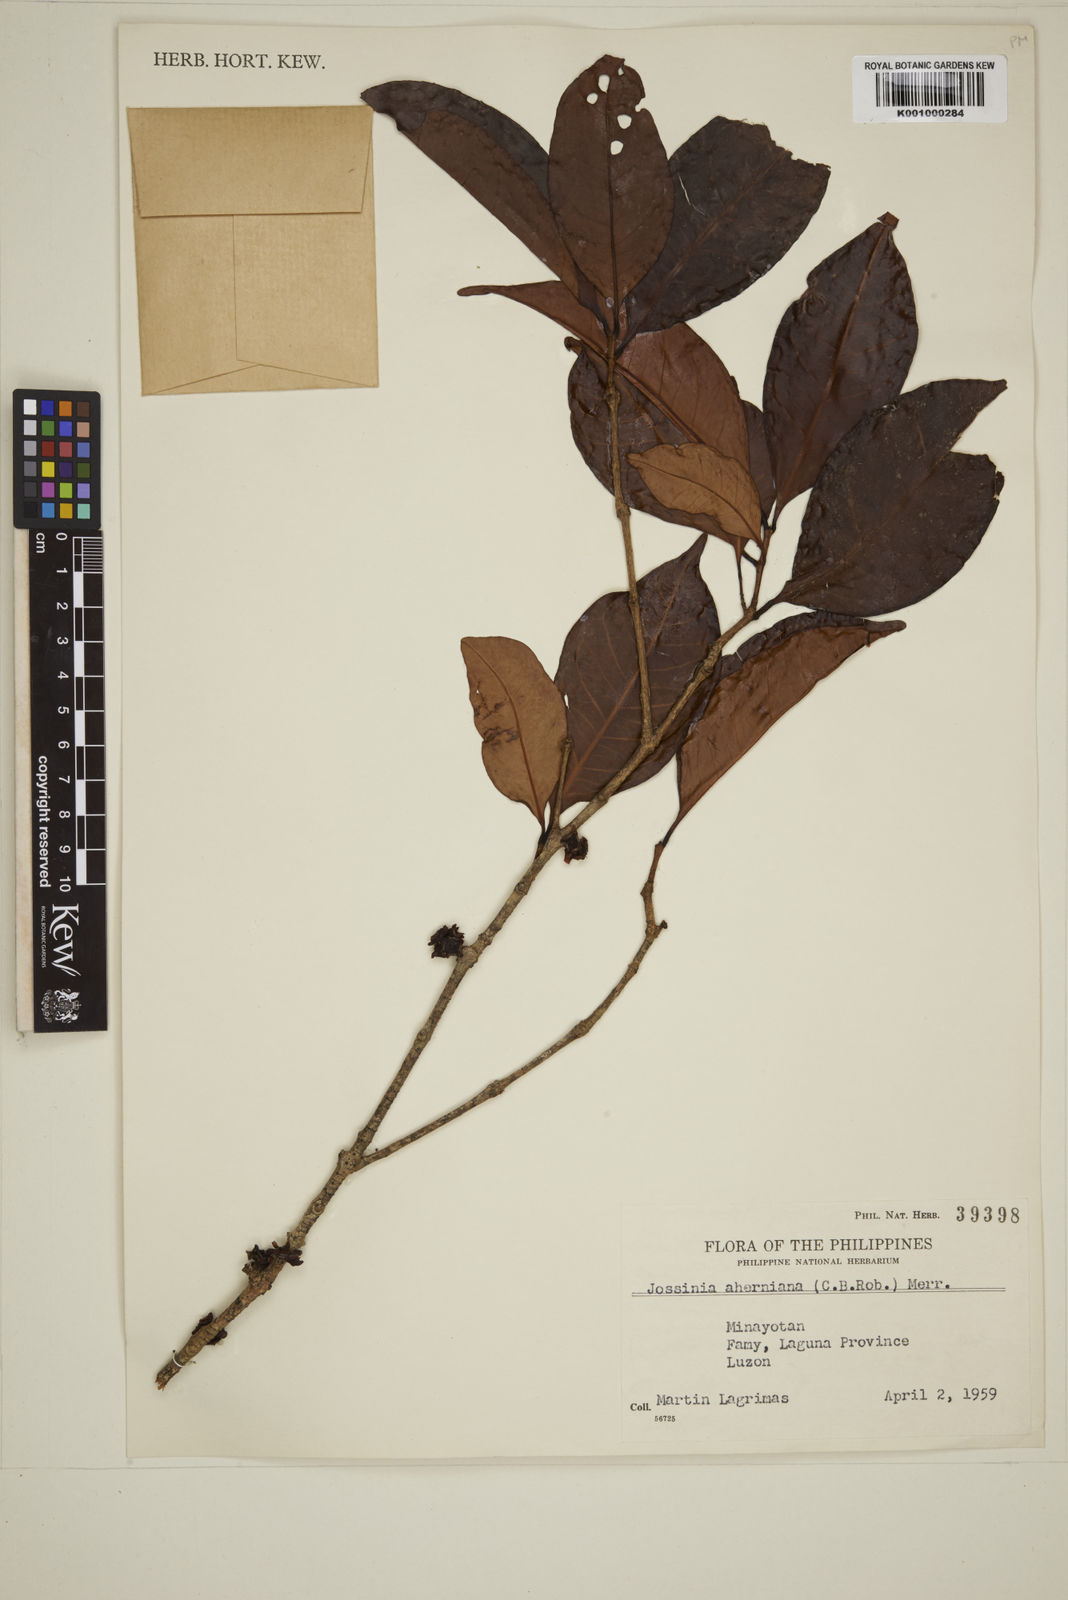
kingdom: Plantae
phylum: Tracheophyta
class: Magnoliopsida
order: Myrtales
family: Myrtaceae
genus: Eugenia
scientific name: Eugenia aherniana
